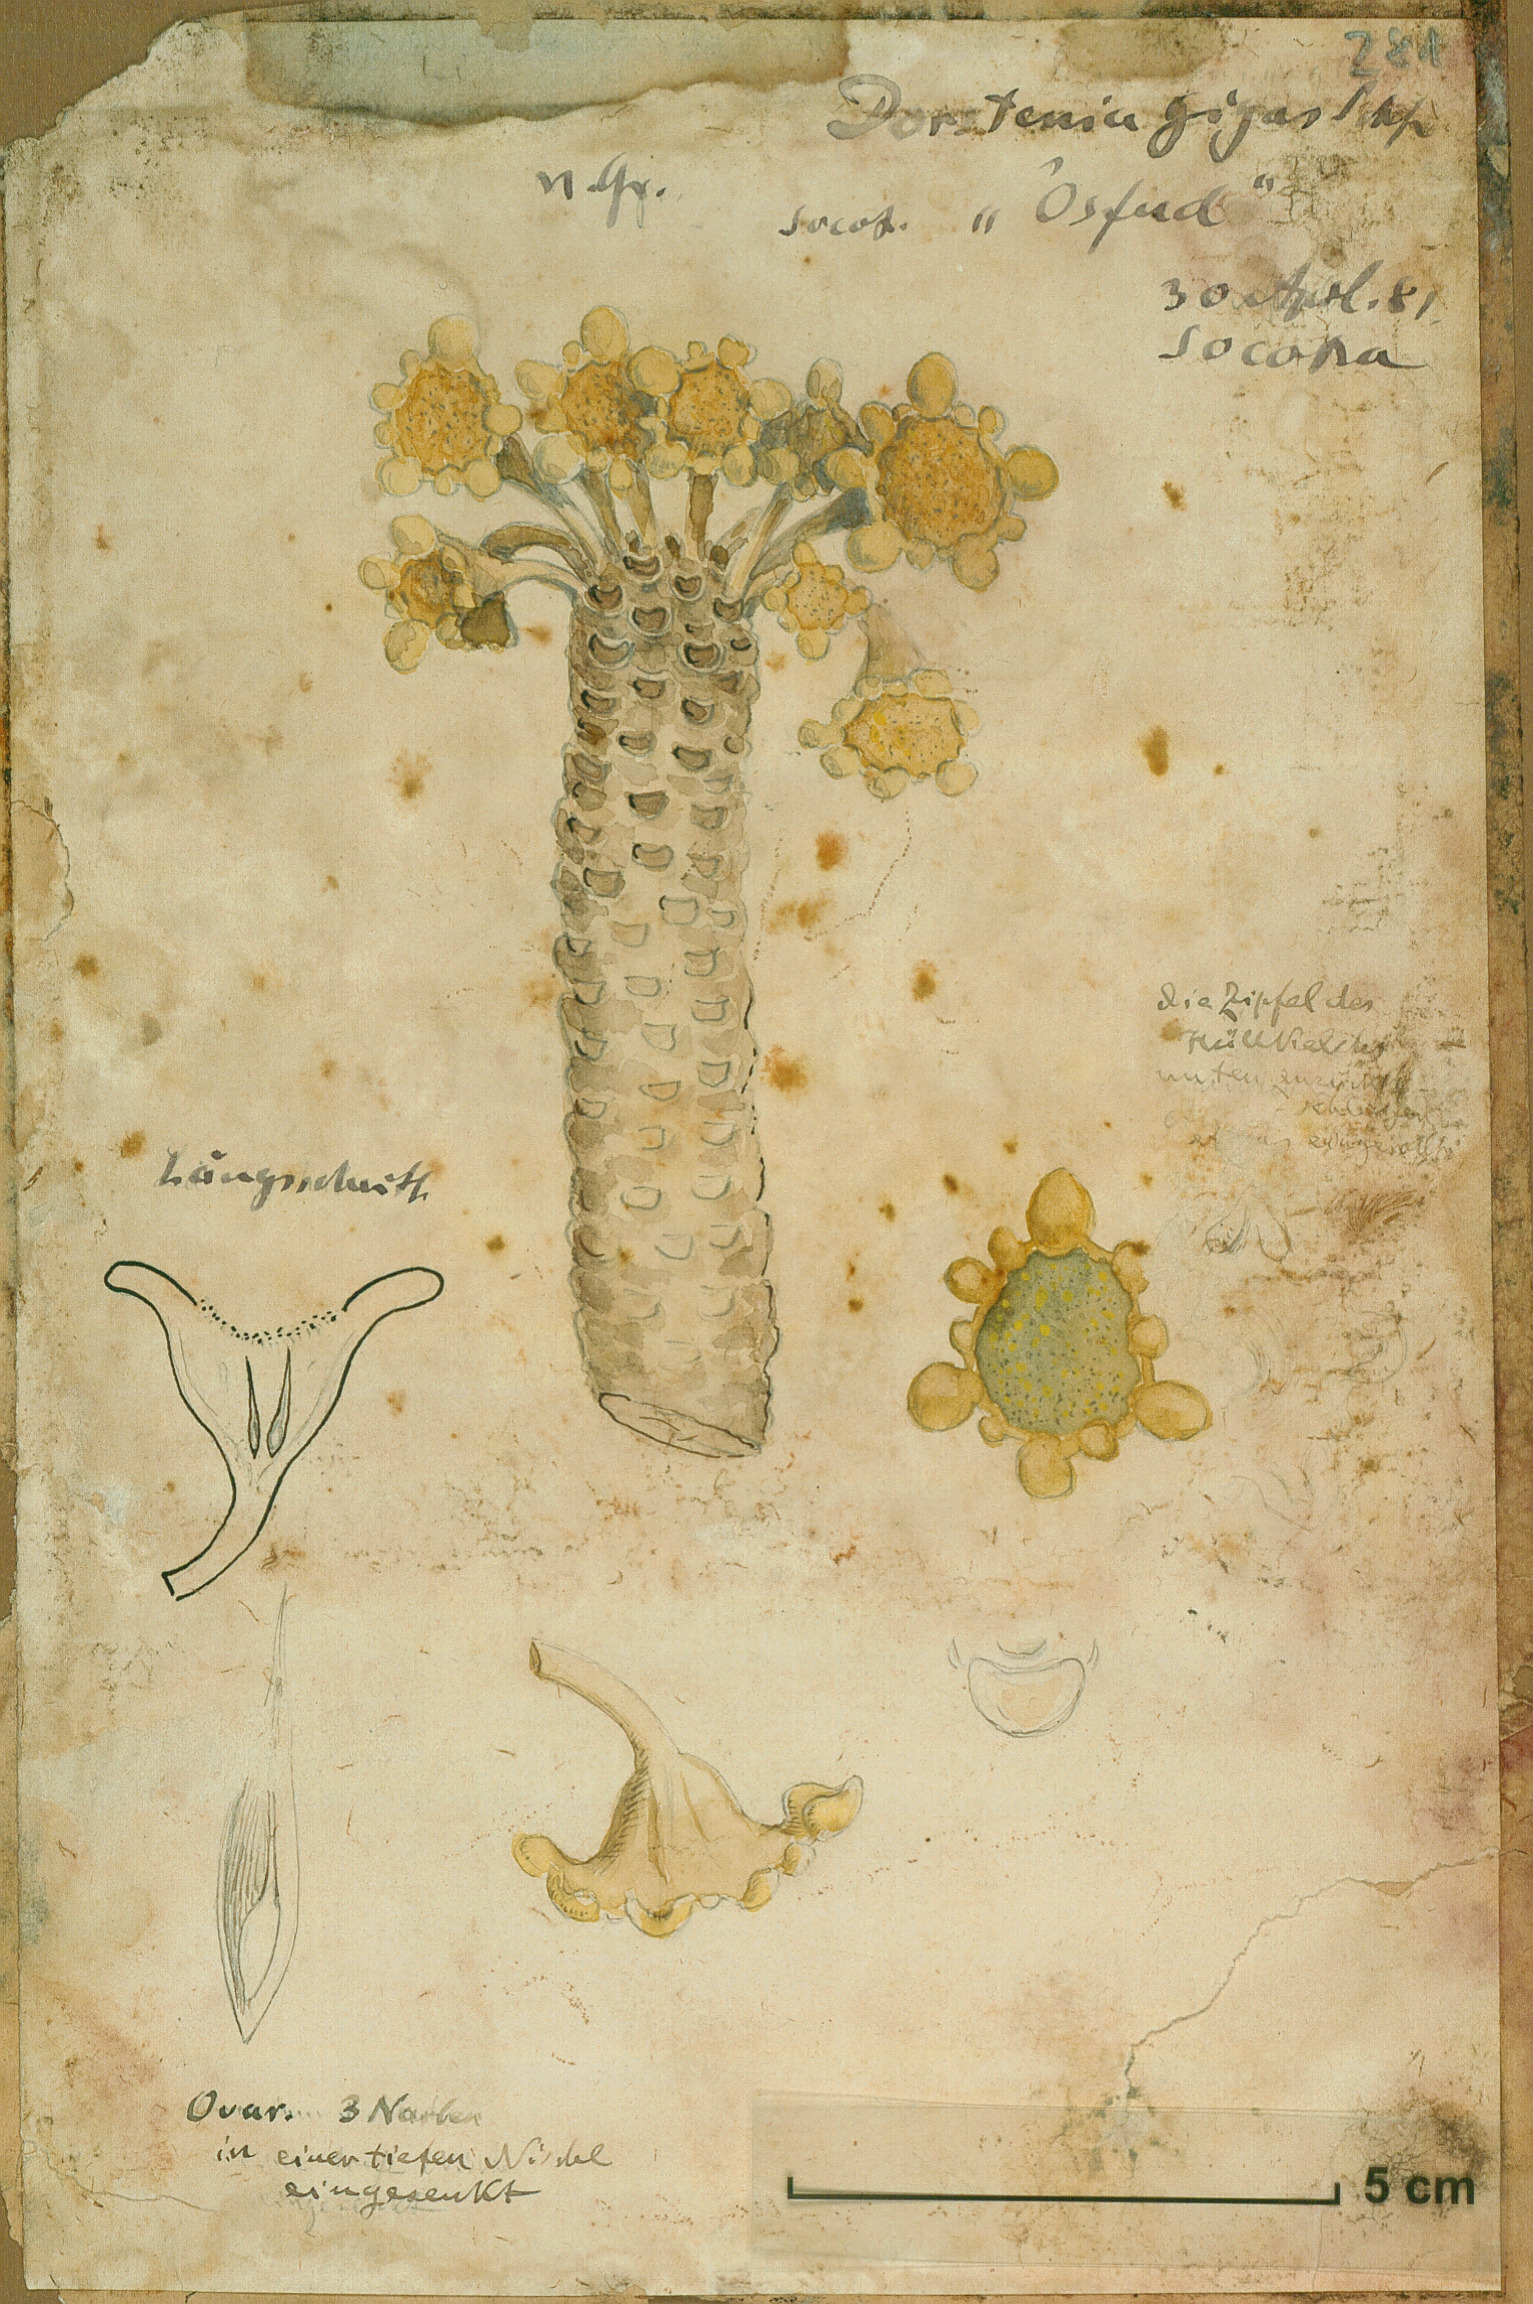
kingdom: Plantae
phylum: Tracheophyta
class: Magnoliopsida
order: Rosales
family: Moraceae
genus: Dorstenia
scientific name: Dorstenia gigas
